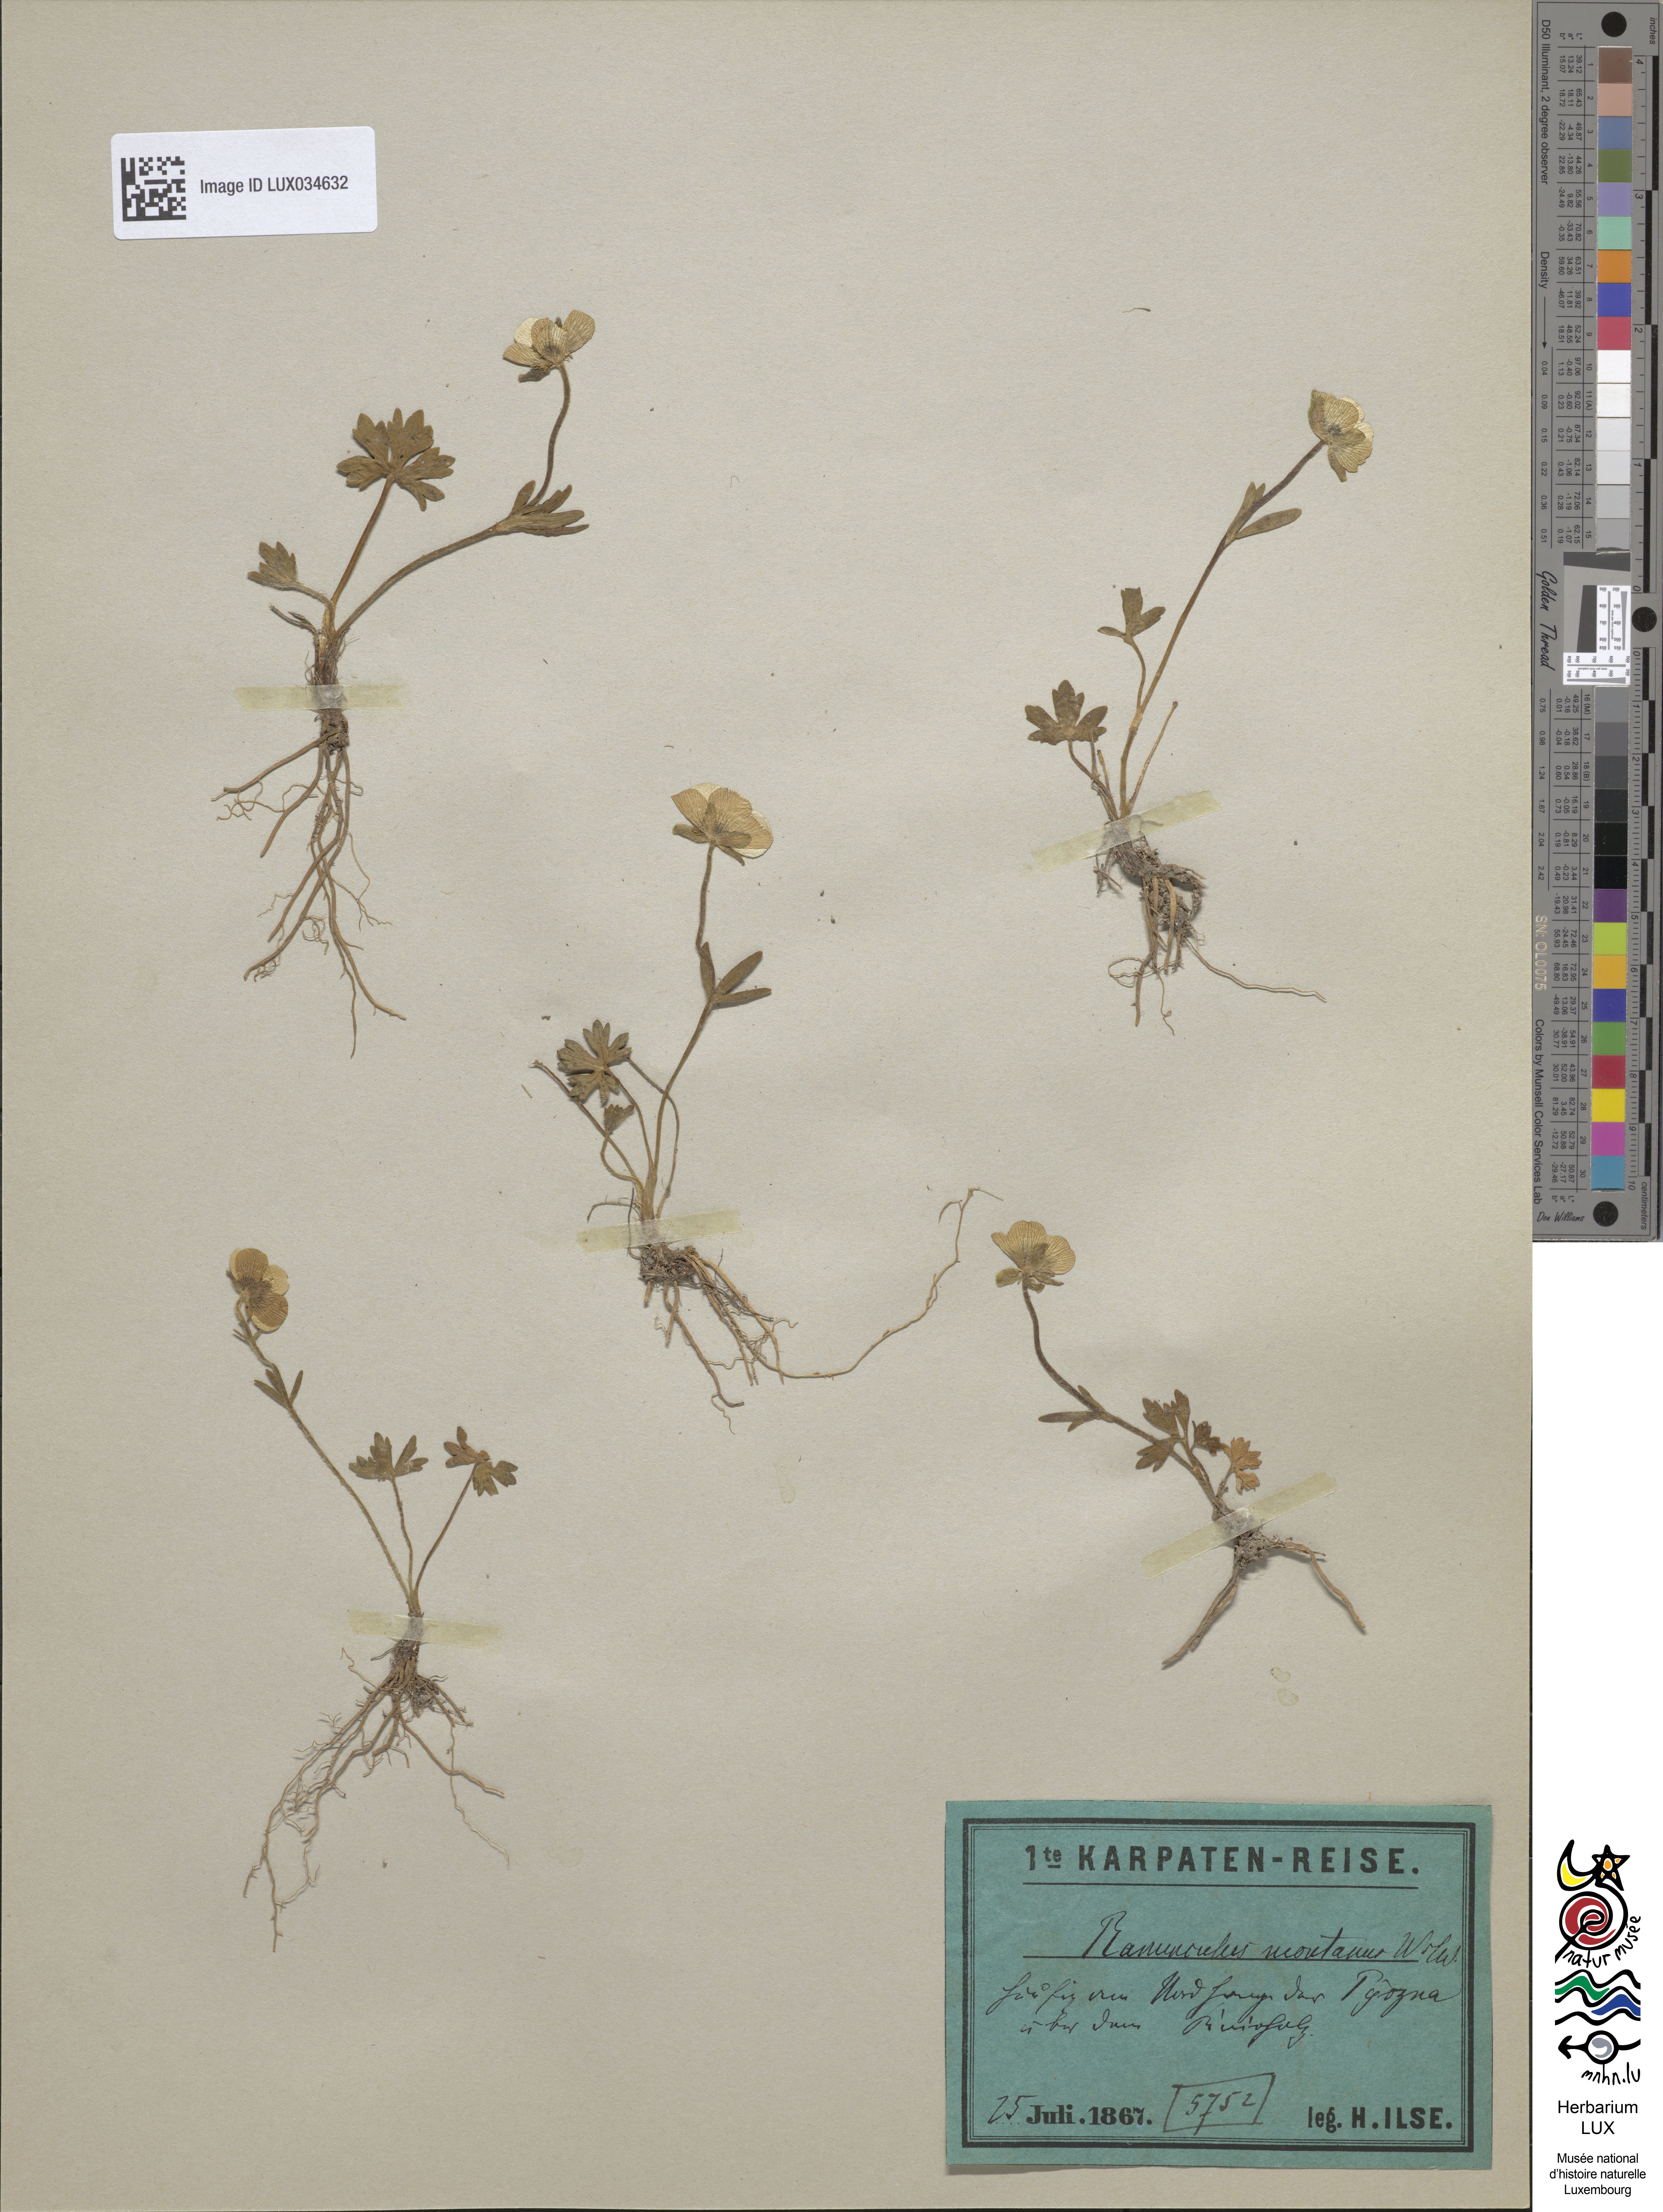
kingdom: Plantae
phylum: Tracheophyta
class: Magnoliopsida
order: Ranunculales
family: Ranunculaceae
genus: Ranunculus
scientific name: Ranunculus montanus
